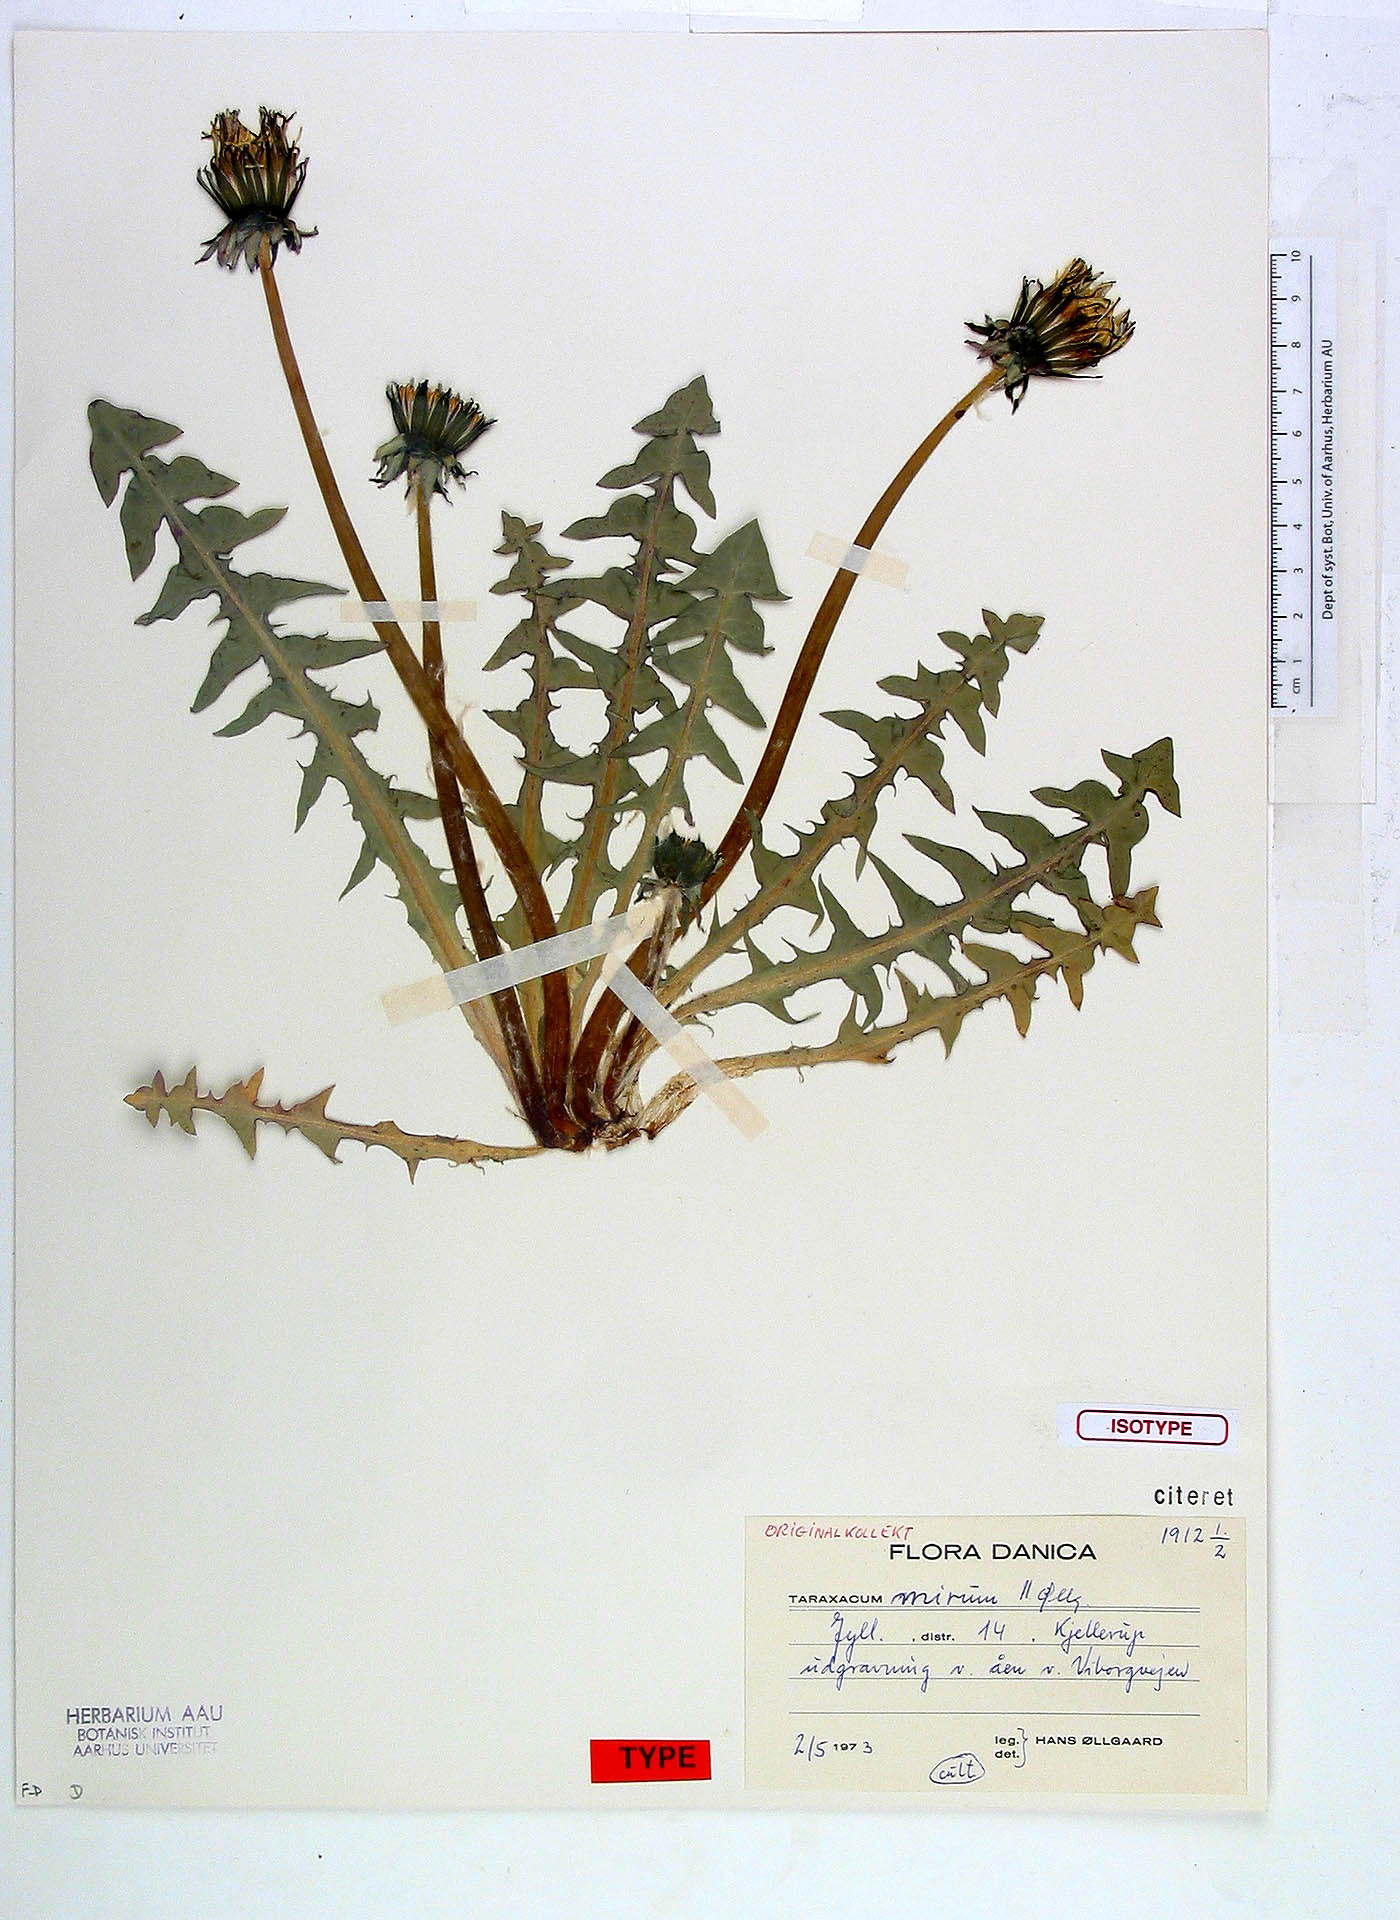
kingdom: Plantae
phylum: Tracheophyta
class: Magnoliopsida
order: Asterales
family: Asteraceae
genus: Taraxacum
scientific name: Taraxacum subalatum
